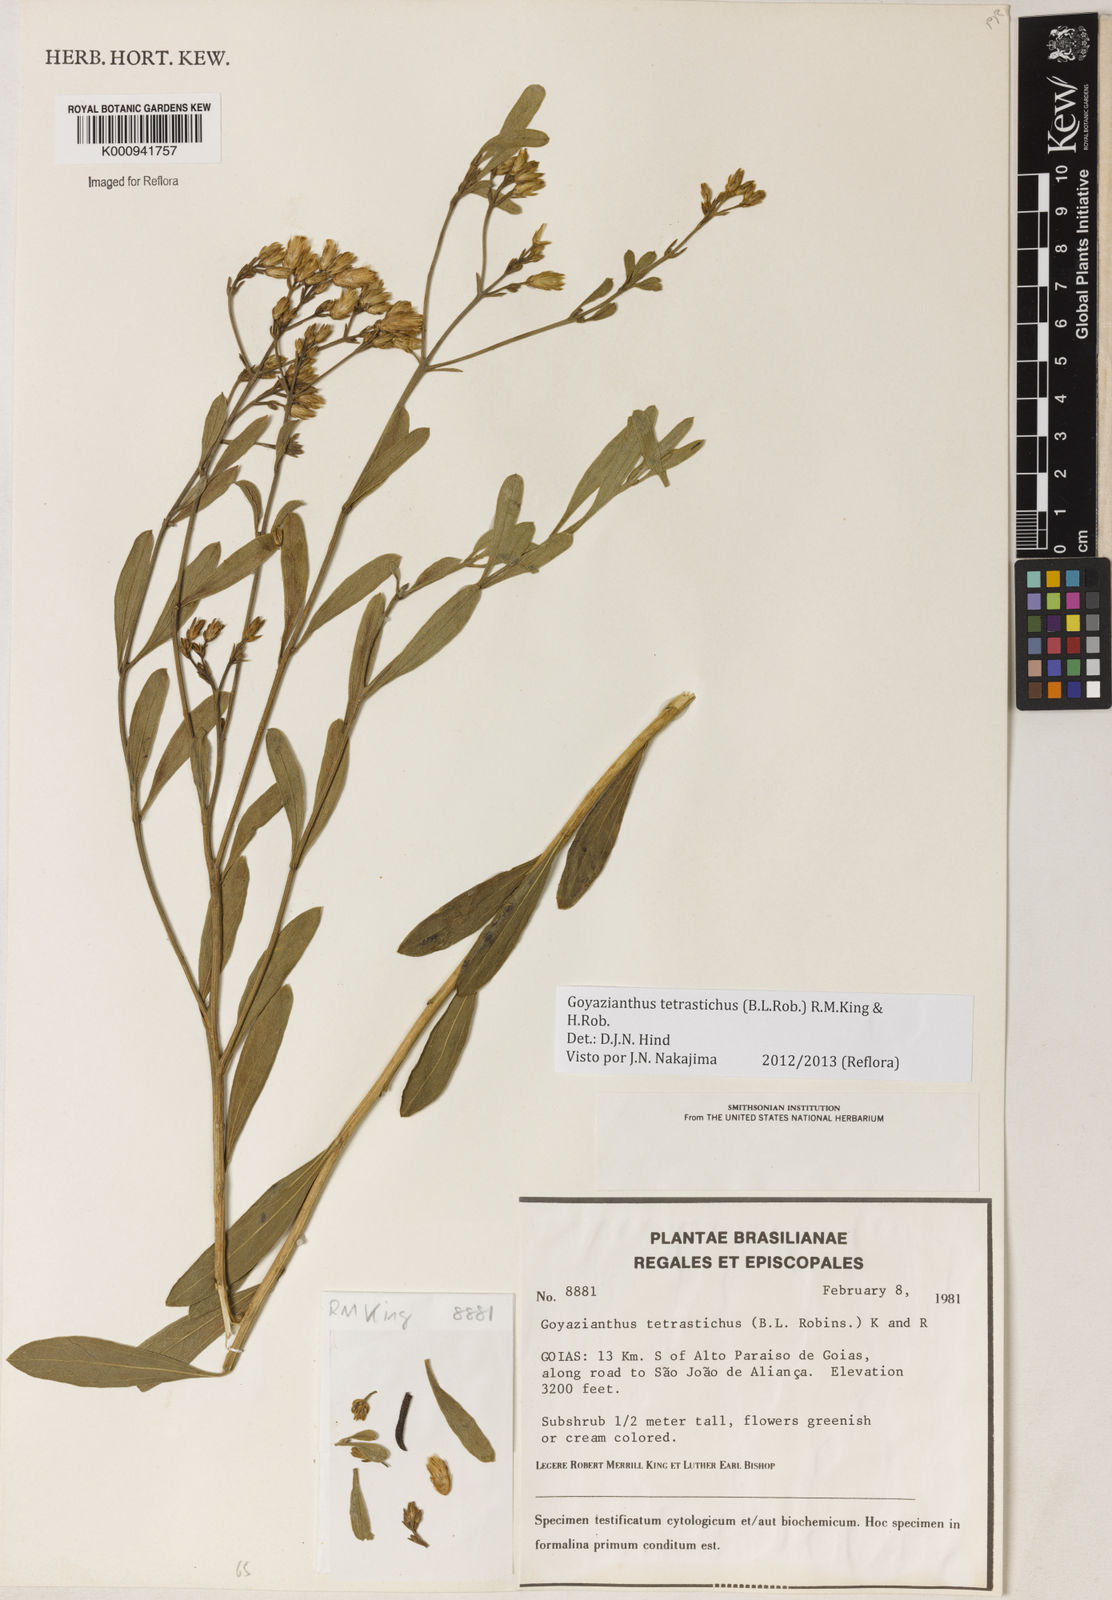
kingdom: Plantae
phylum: Tracheophyta
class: Magnoliopsida
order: Asterales
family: Asteraceae
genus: Goyazianthus
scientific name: Goyazianthus tetrastichus
